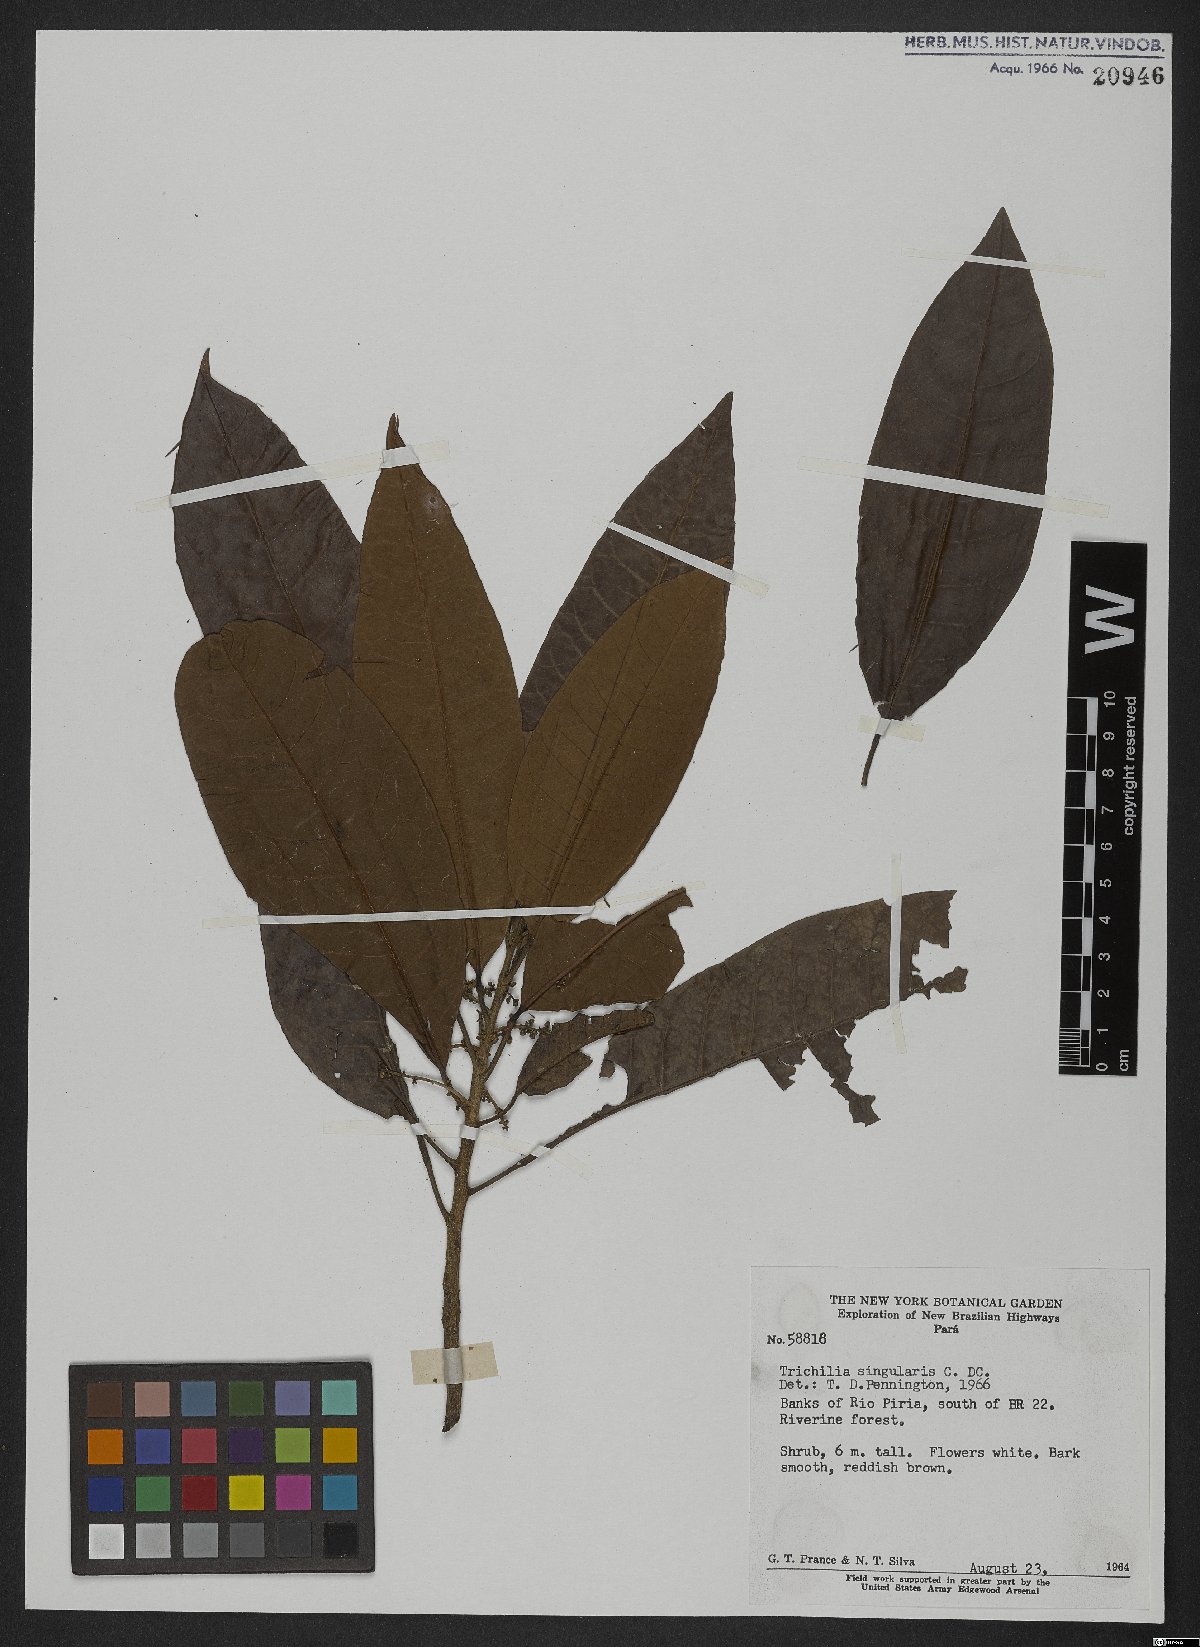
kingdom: Plantae
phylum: Tracheophyta
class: Magnoliopsida
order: Sapindales
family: Meliaceae
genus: Trichilia
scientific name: Trichilia singularis
